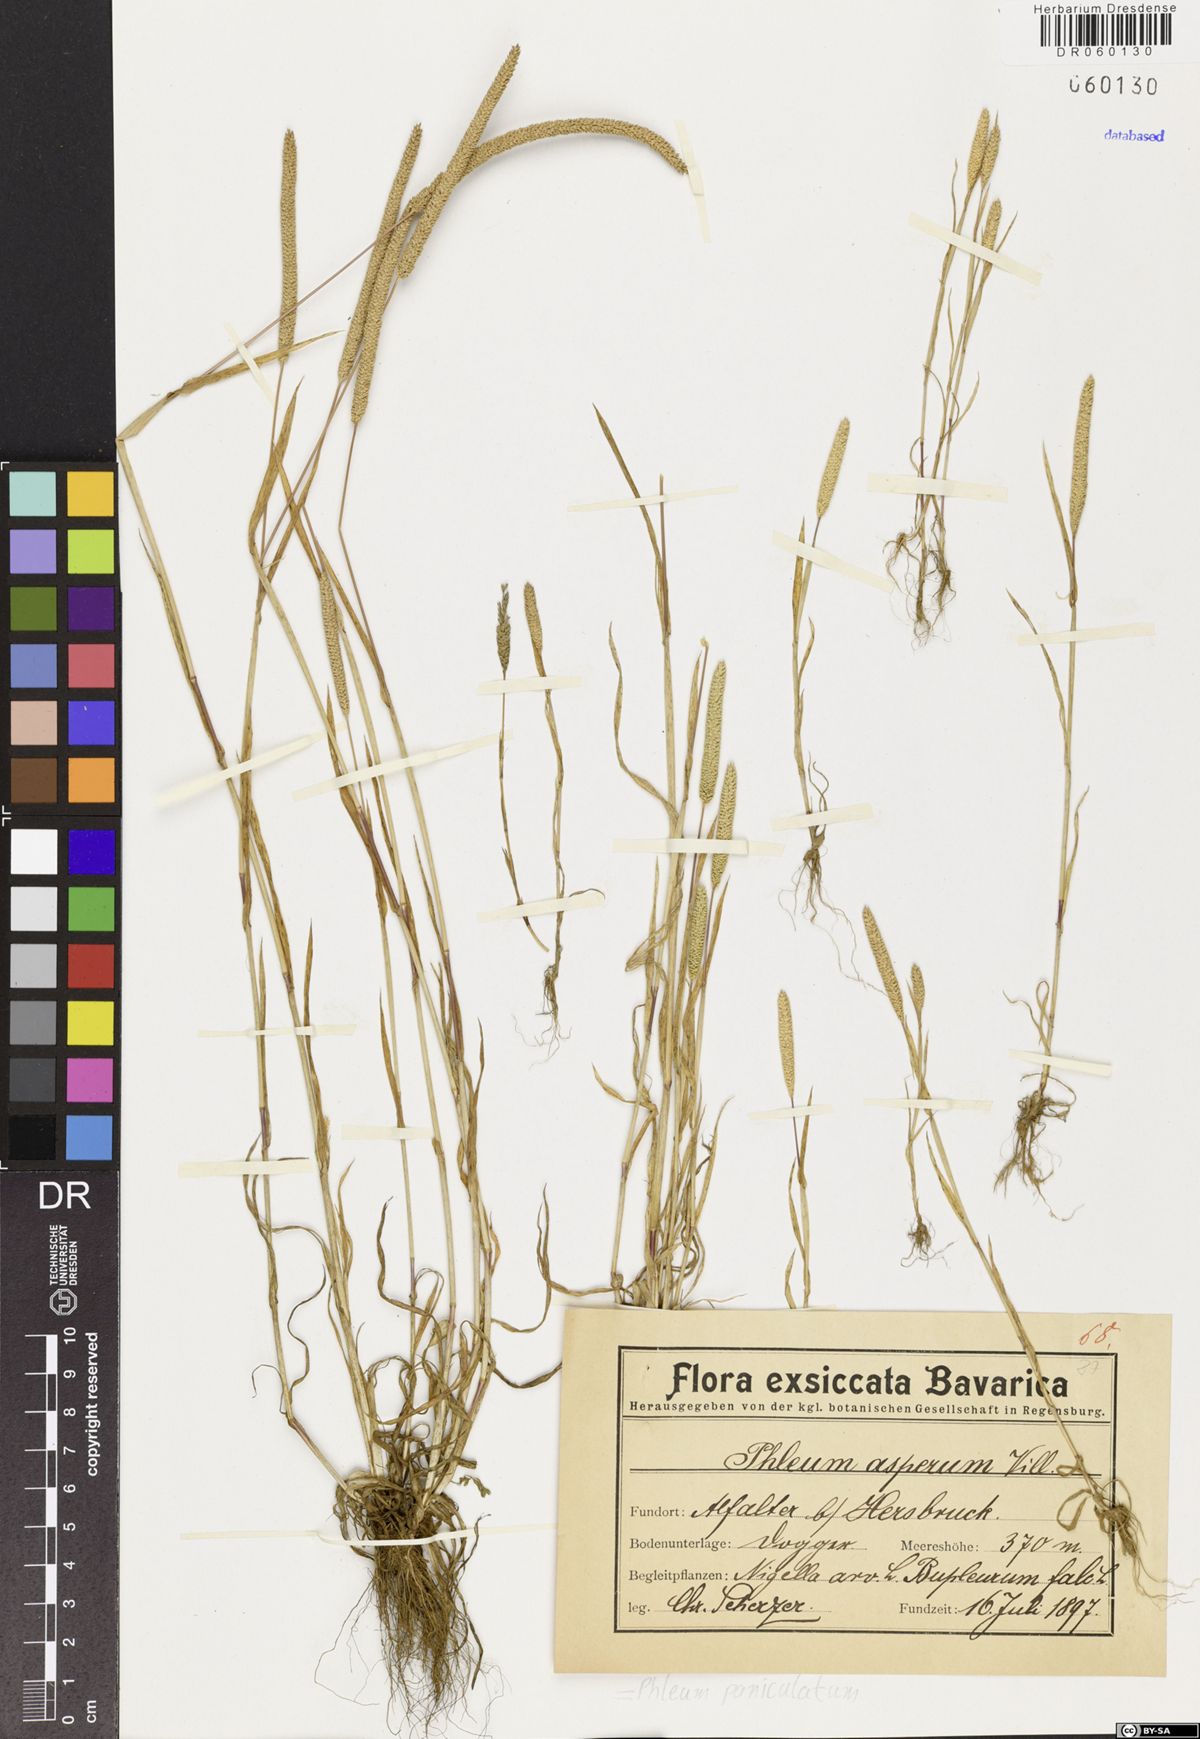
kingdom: Plantae
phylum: Tracheophyta
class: Liliopsida
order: Poales
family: Poaceae
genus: Phleum
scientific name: Phleum paniculatum
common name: British timothy
